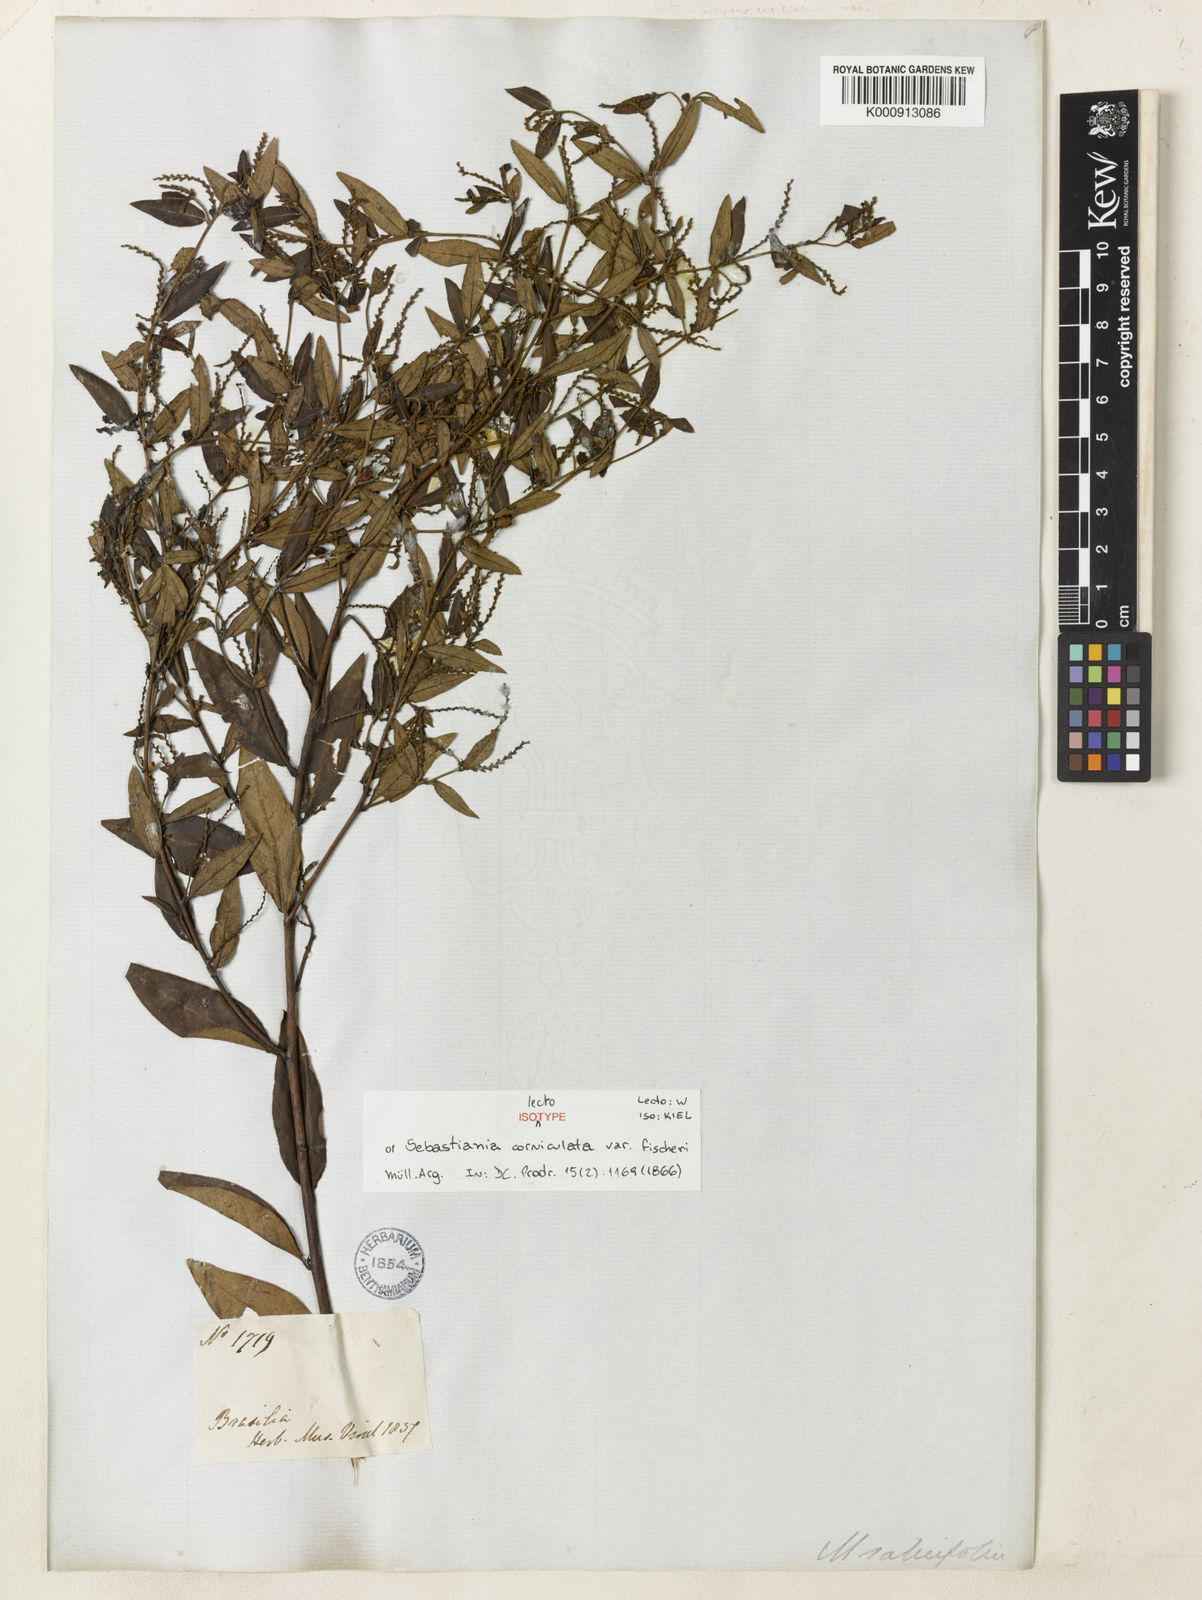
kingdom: Plantae
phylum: Tracheophyta
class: Magnoliopsida
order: Malpighiales
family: Euphorbiaceae
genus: Microstachys
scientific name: Microstachys corniculata
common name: Hato tejas
